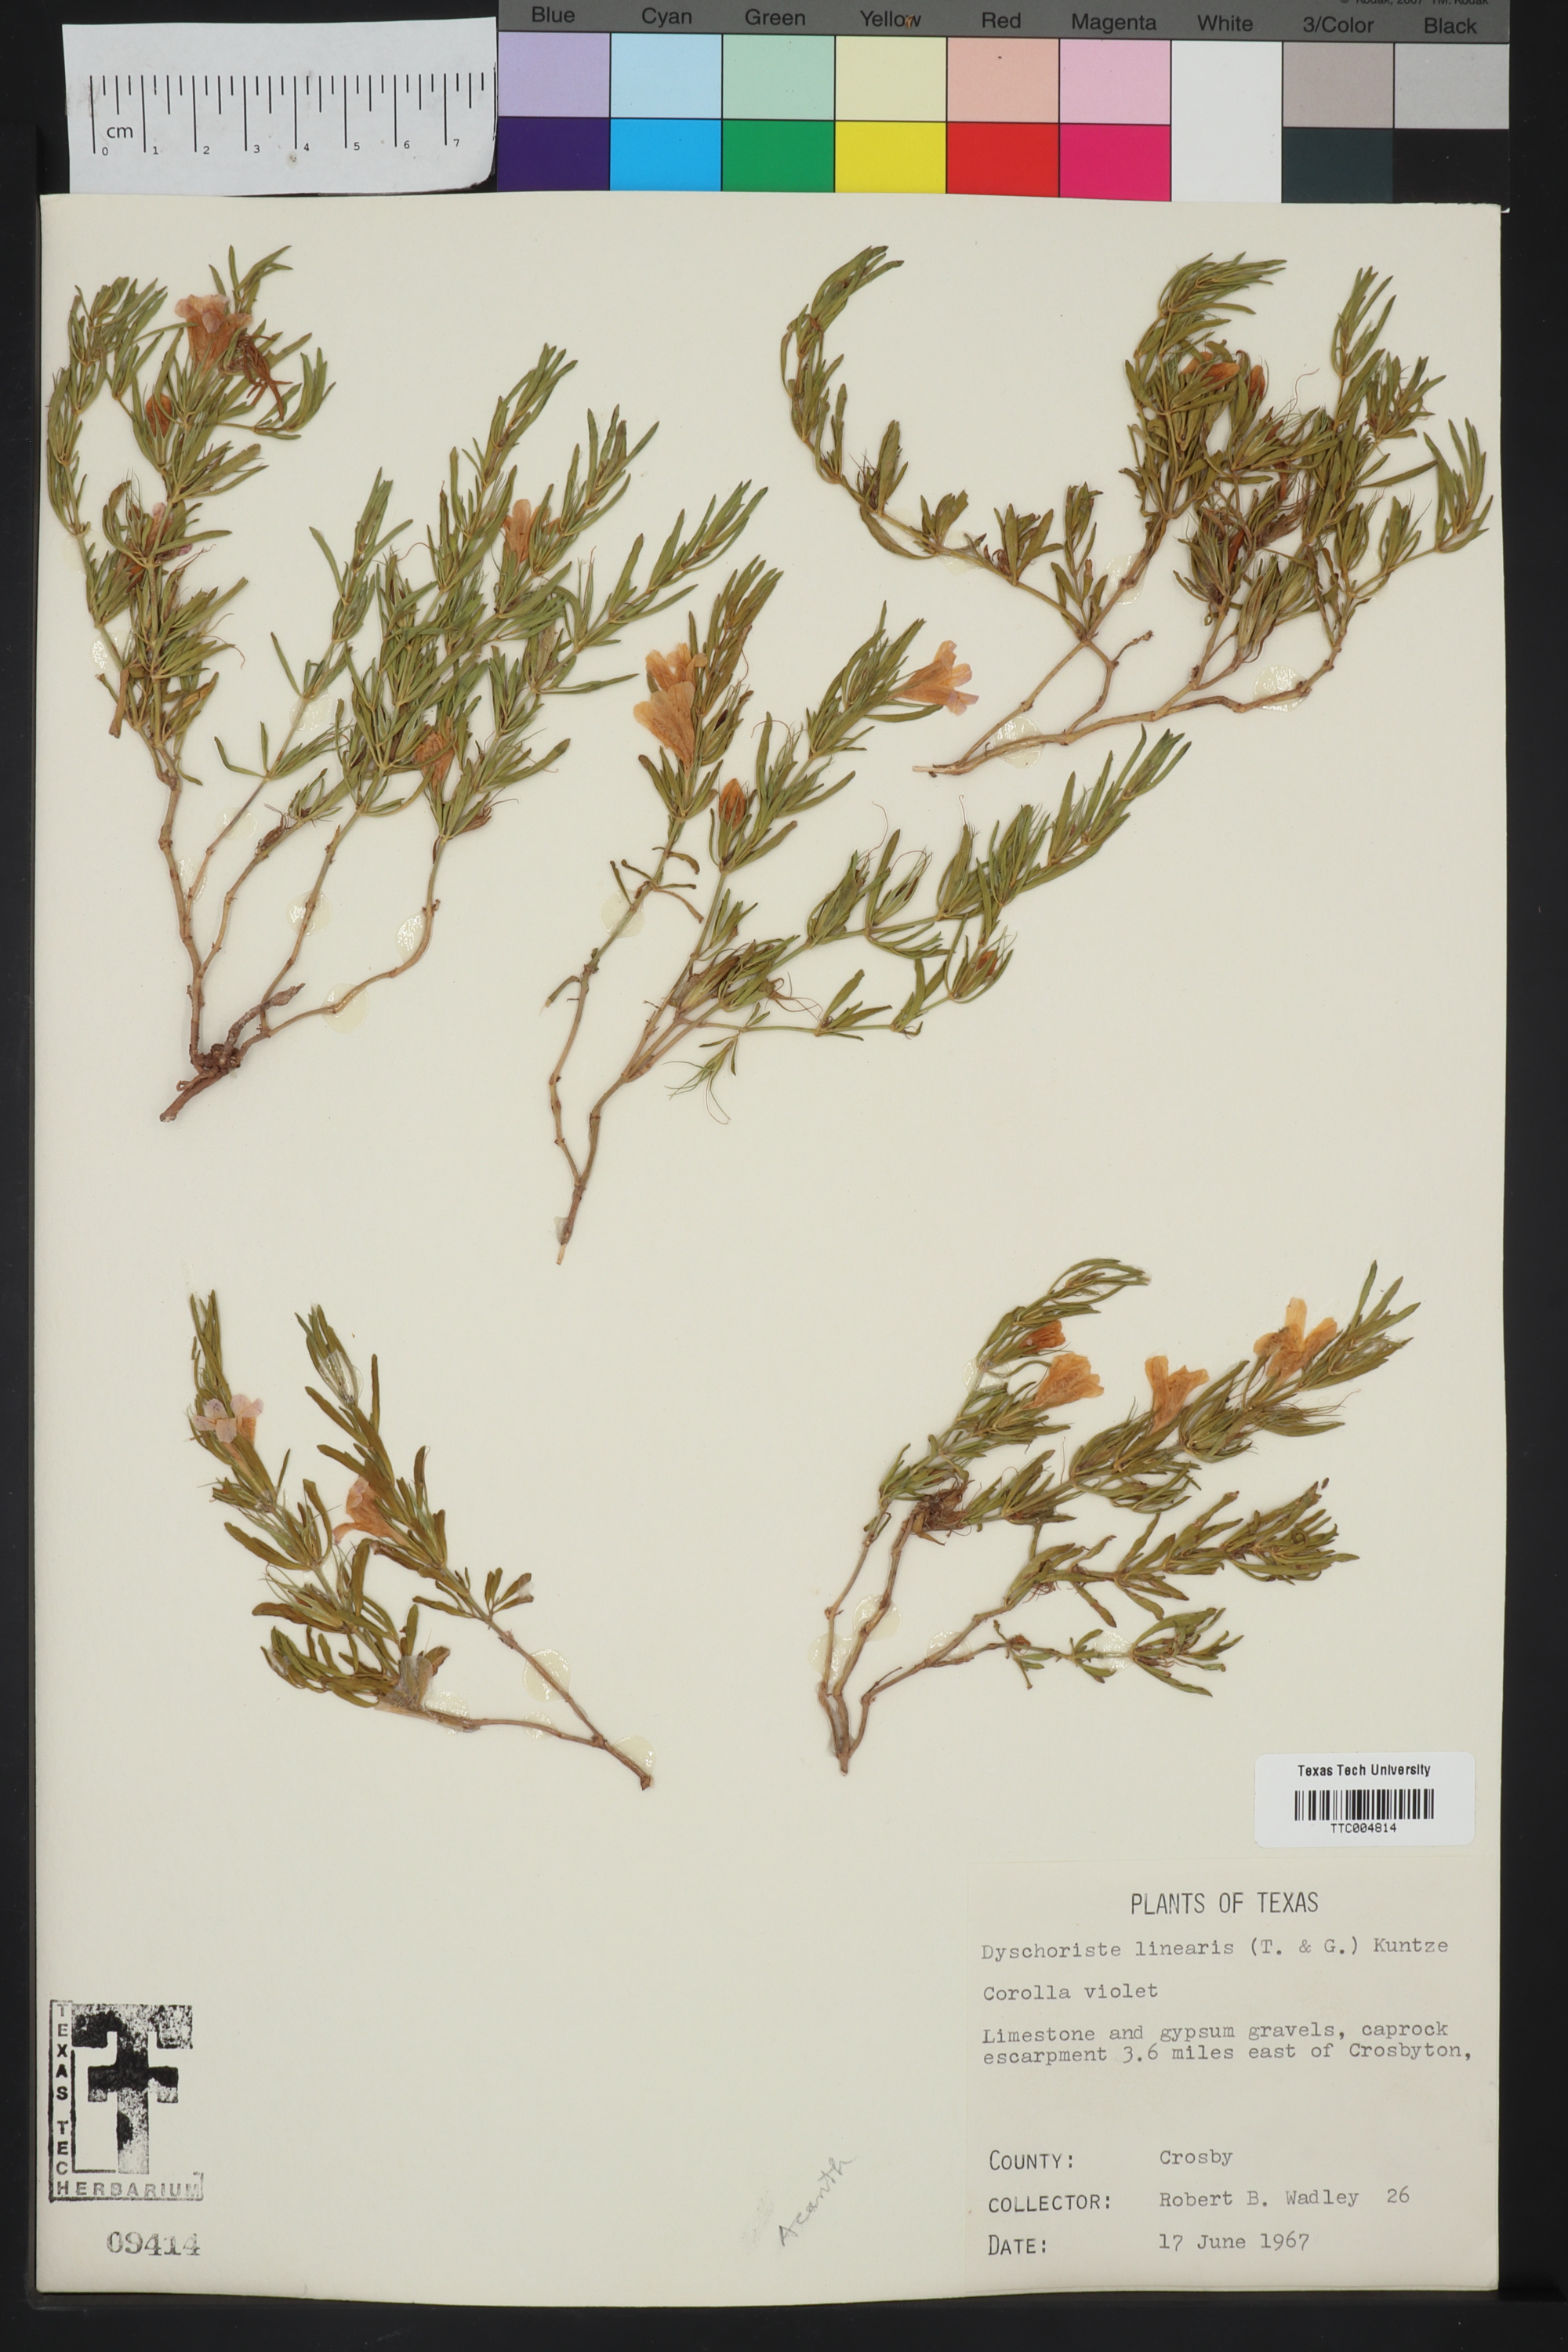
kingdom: Plantae
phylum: Tracheophyta
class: Magnoliopsida
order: Lamiales
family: Acanthaceae
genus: Dyschoriste
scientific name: Dyschoriste linearis
